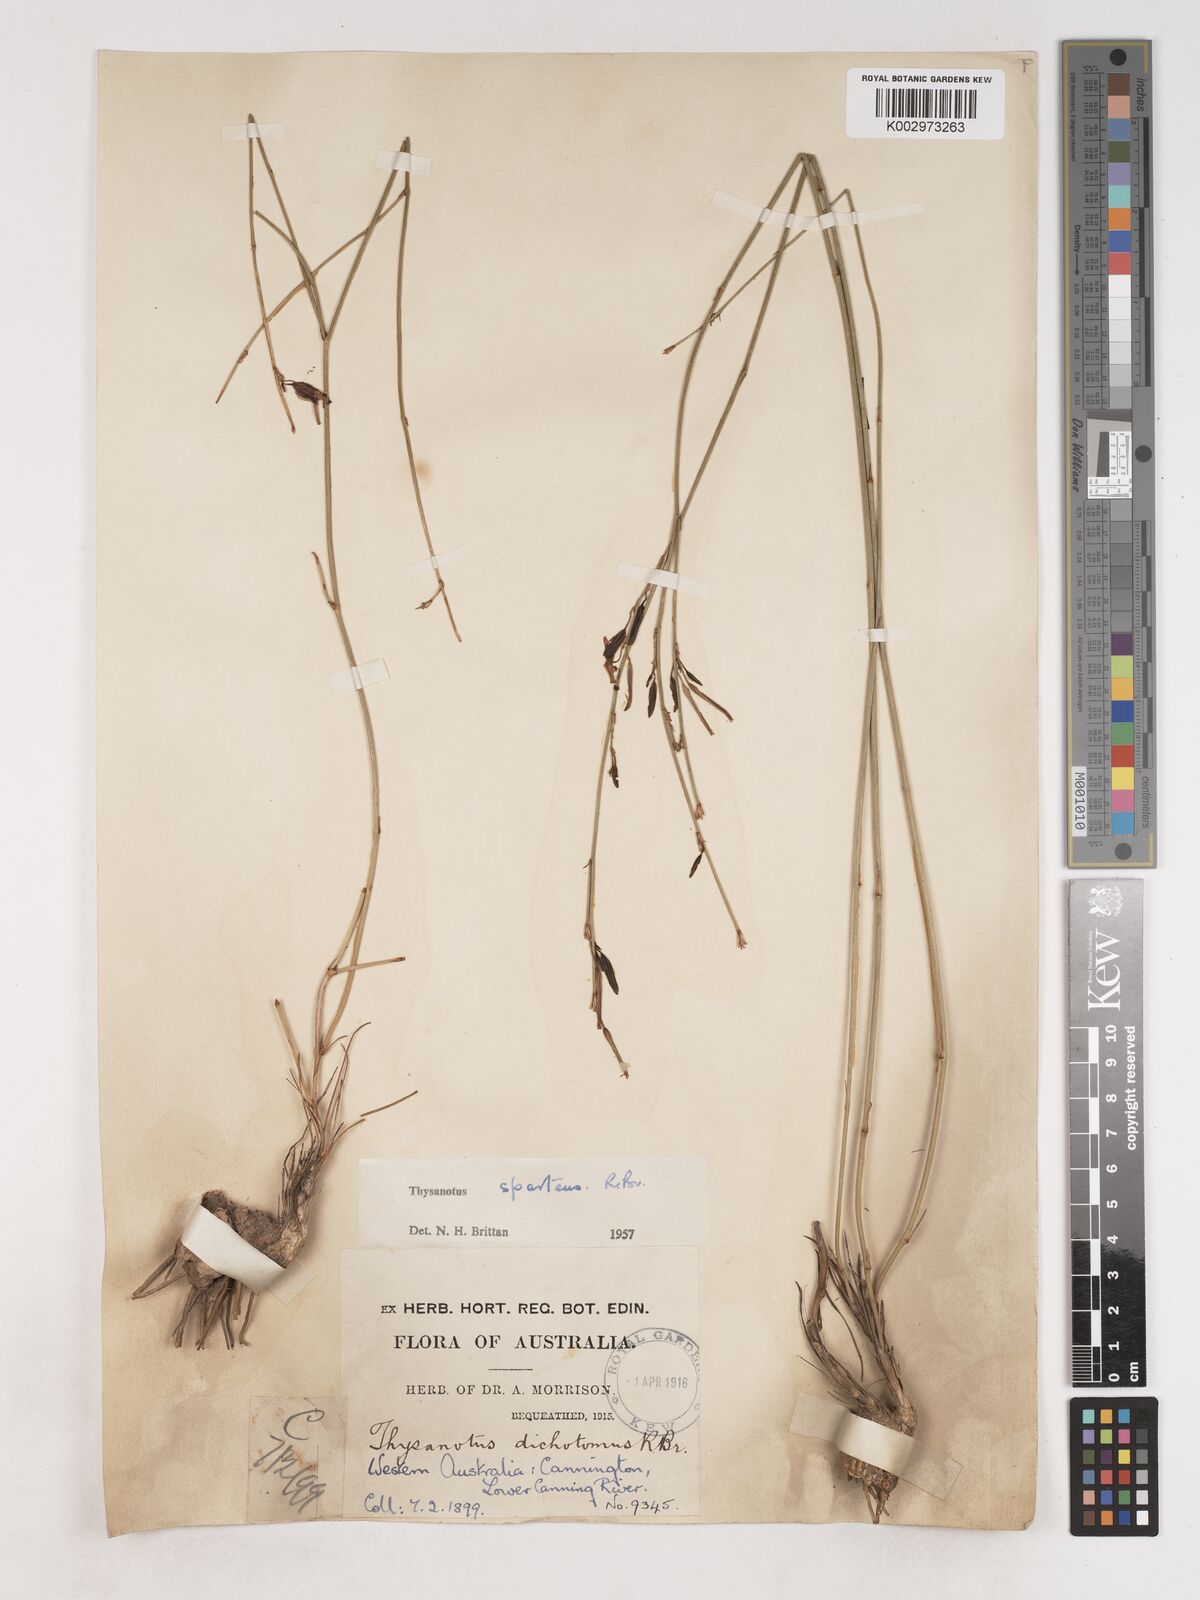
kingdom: Plantae
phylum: Tracheophyta
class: Liliopsida
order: Asparagales
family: Asparagaceae
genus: Thysanotus
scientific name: Thysanotus sparteus
